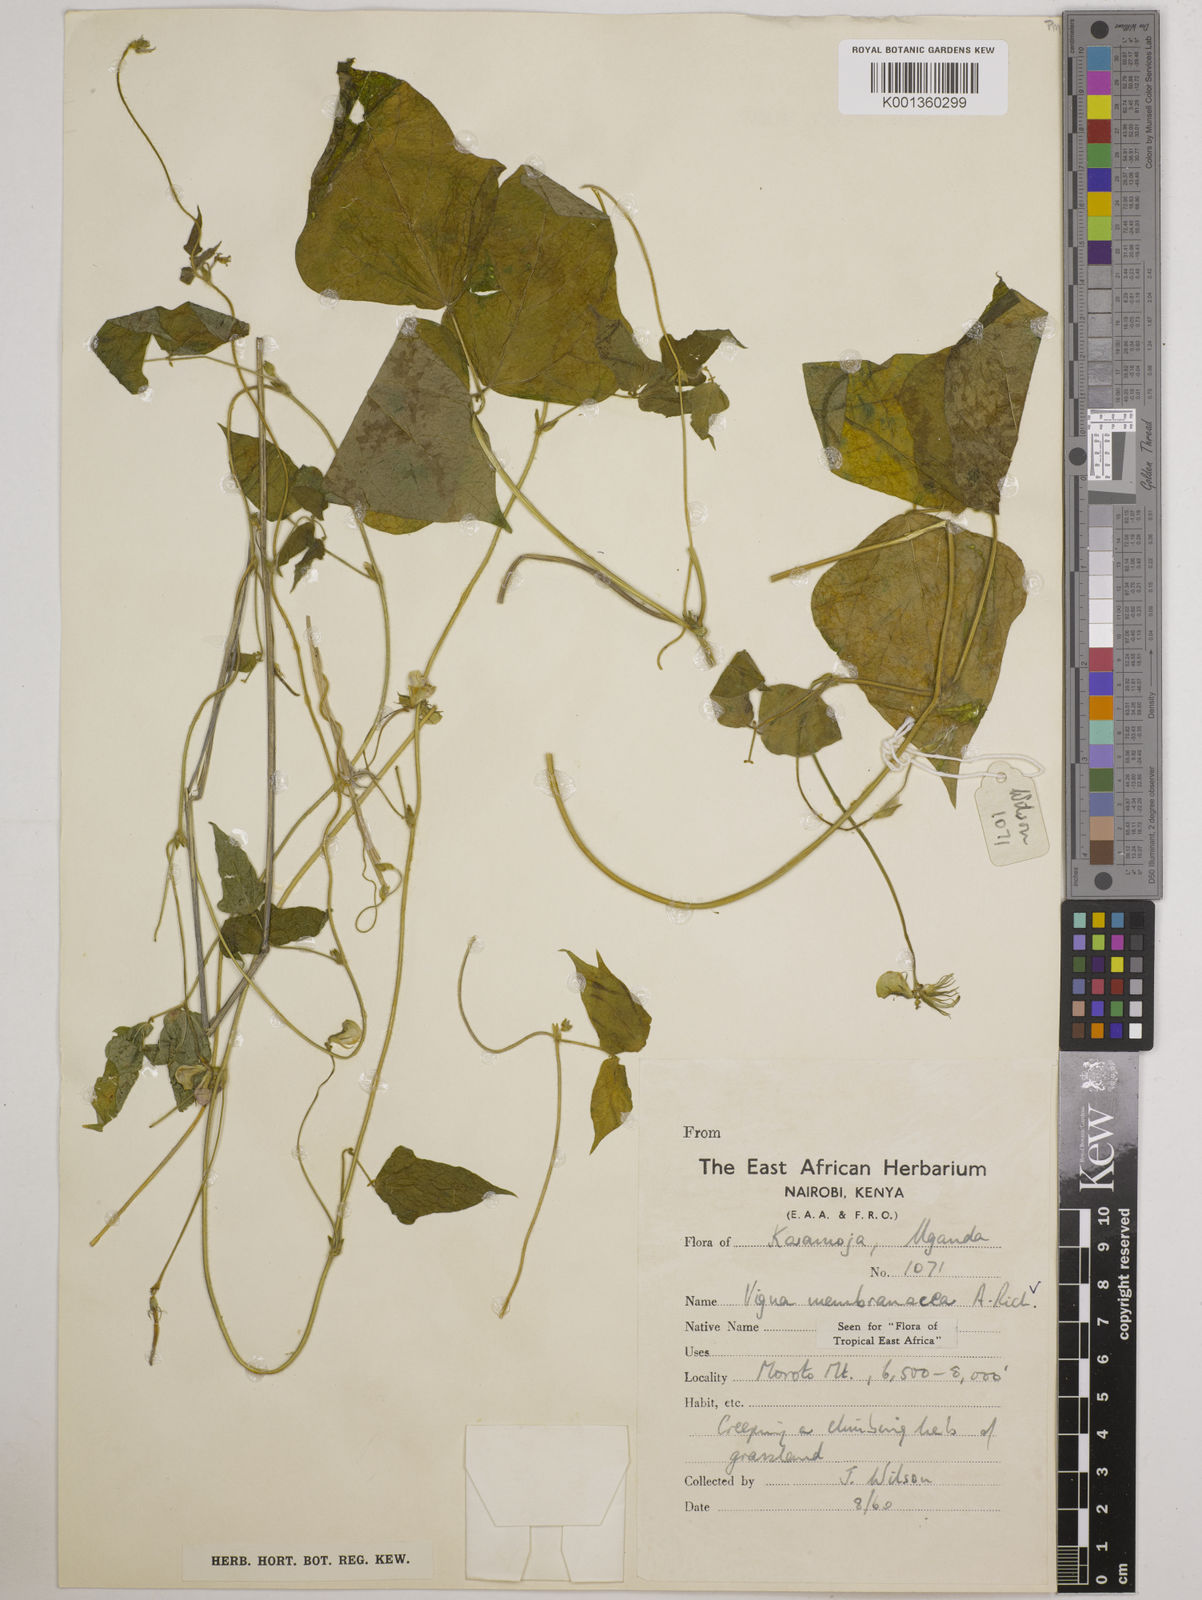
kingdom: Plantae
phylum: Tracheophyta
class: Magnoliopsida
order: Fabales
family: Fabaceae
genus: Vigna
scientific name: Vigna membranacea
